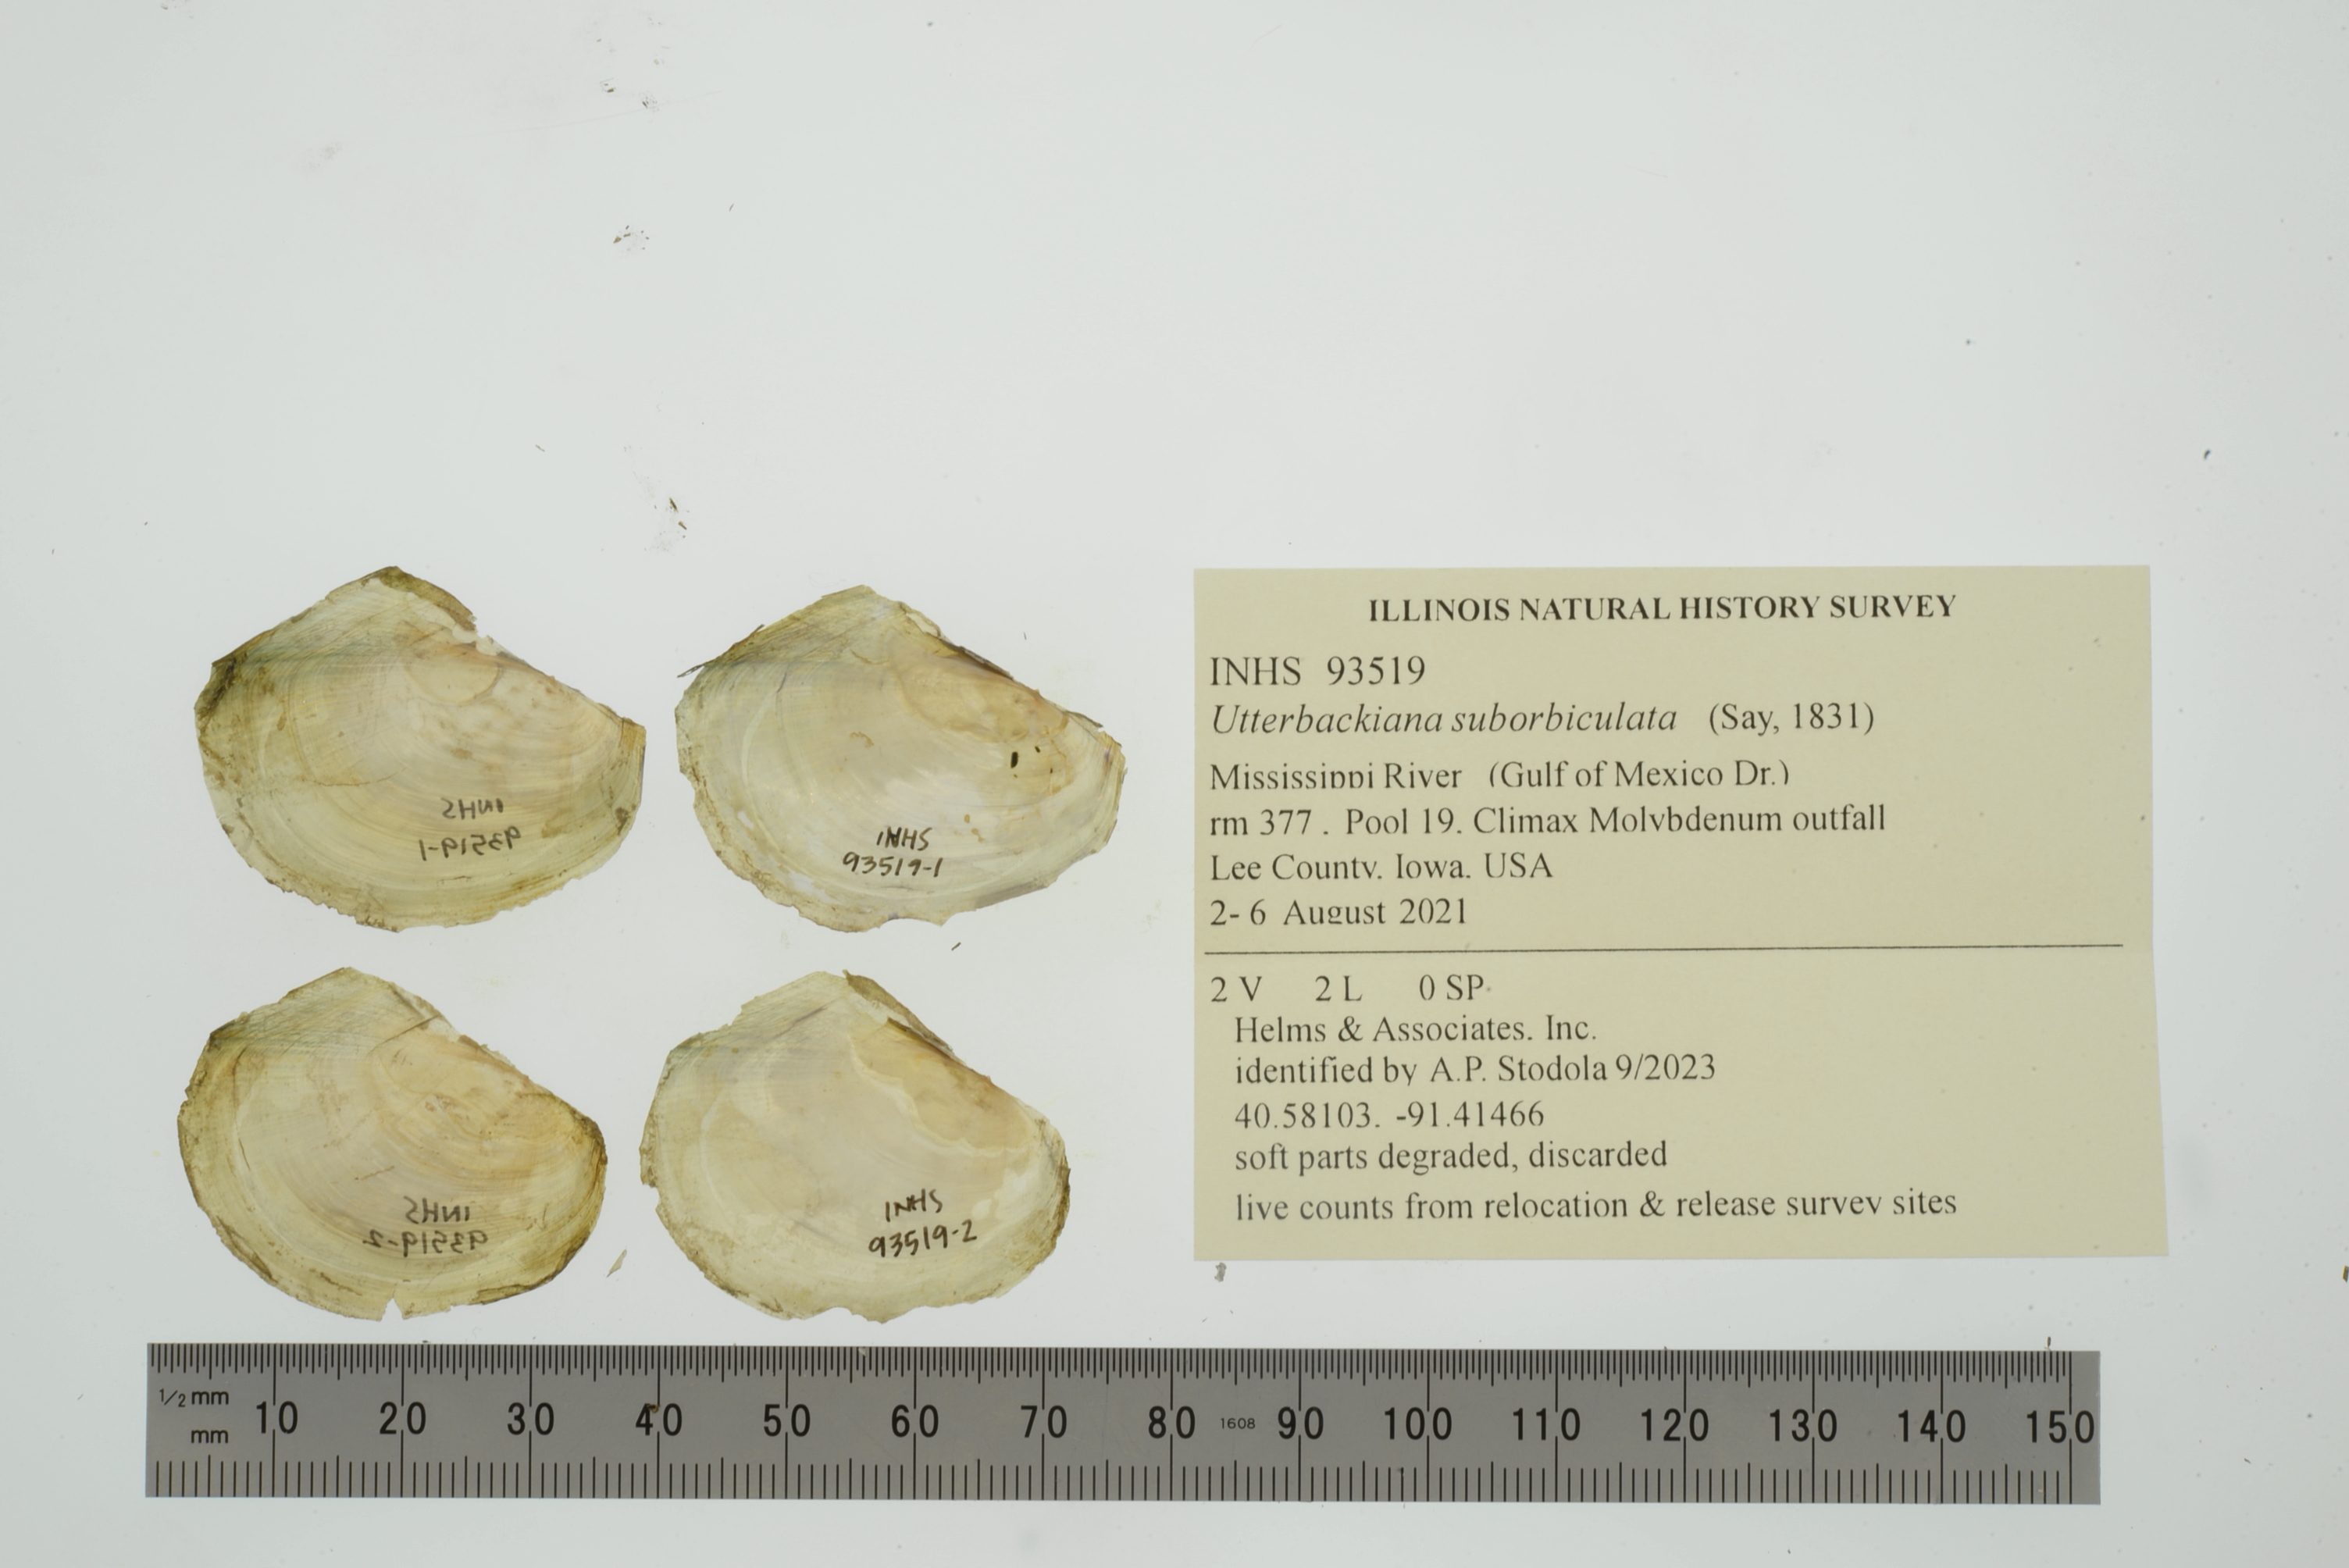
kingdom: Animalia
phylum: Mollusca
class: Bivalvia
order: Unionida
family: Unionidae
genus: Utterbackiana
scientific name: Utterbackiana suborbiculata
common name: Flat floater
